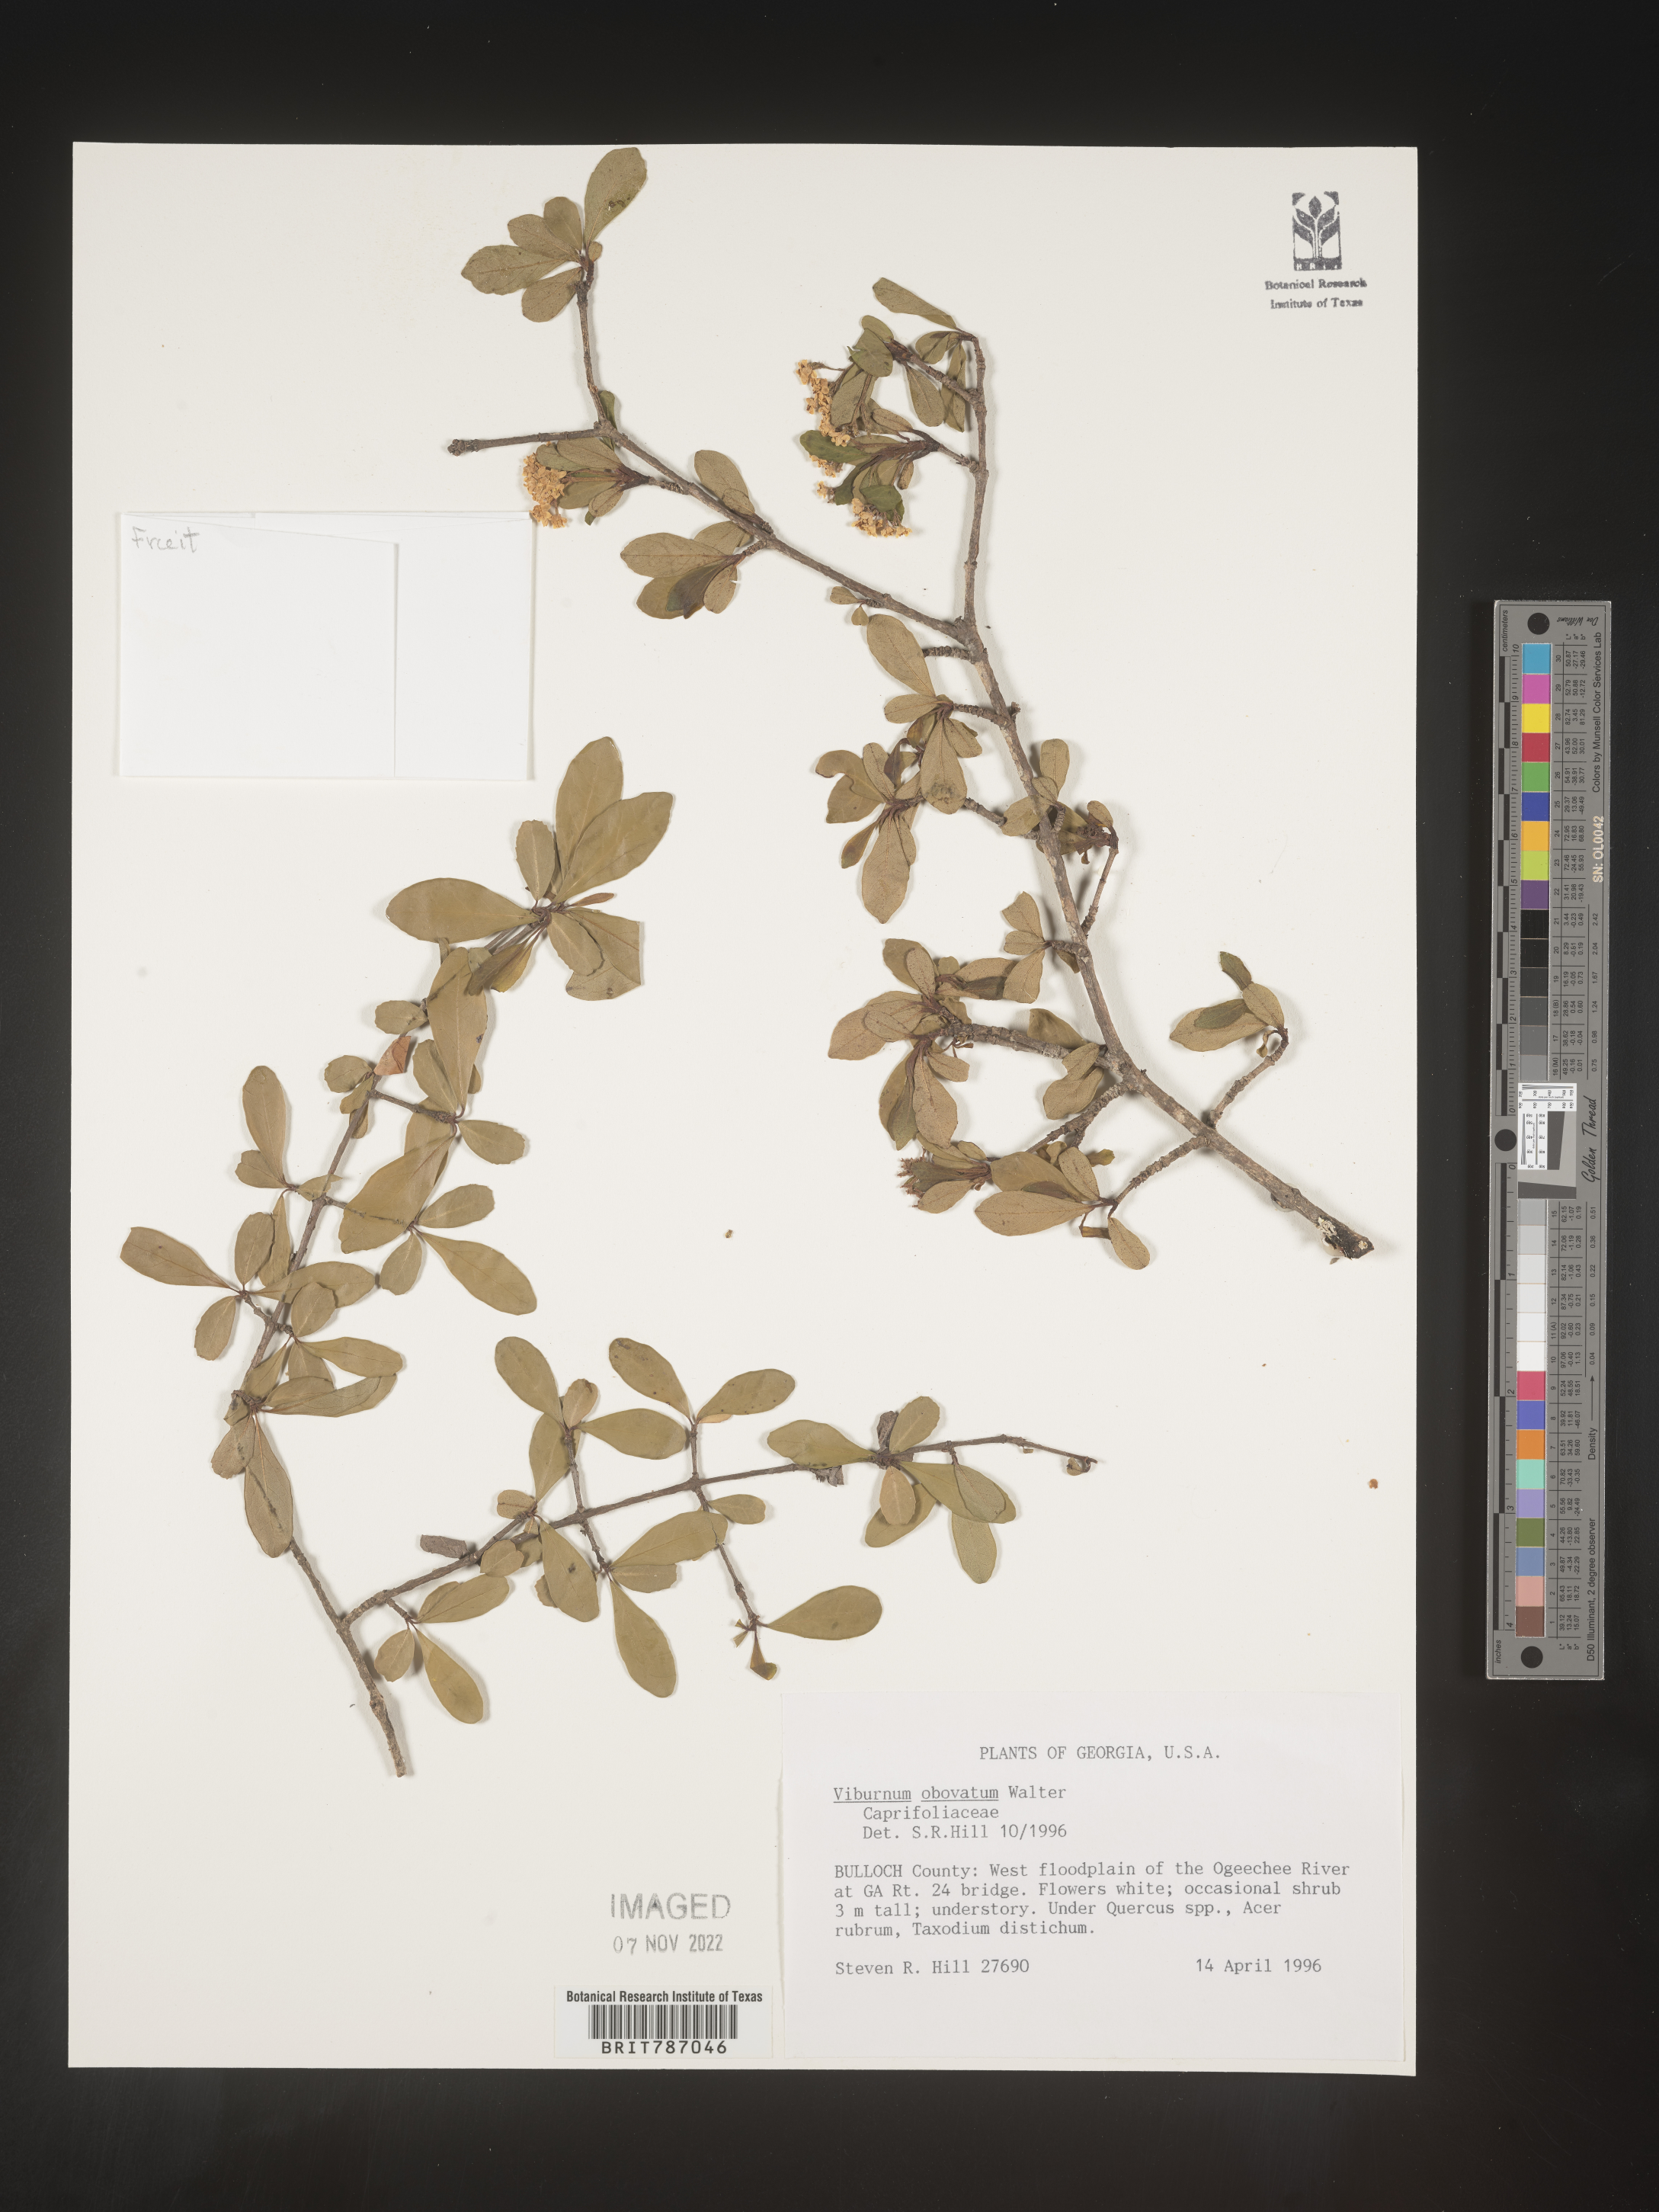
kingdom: Plantae
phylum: Tracheophyta
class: Magnoliopsida
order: Dipsacales
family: Viburnaceae
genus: Viburnum
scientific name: Viburnum obovatum
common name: Walter's viburnum
